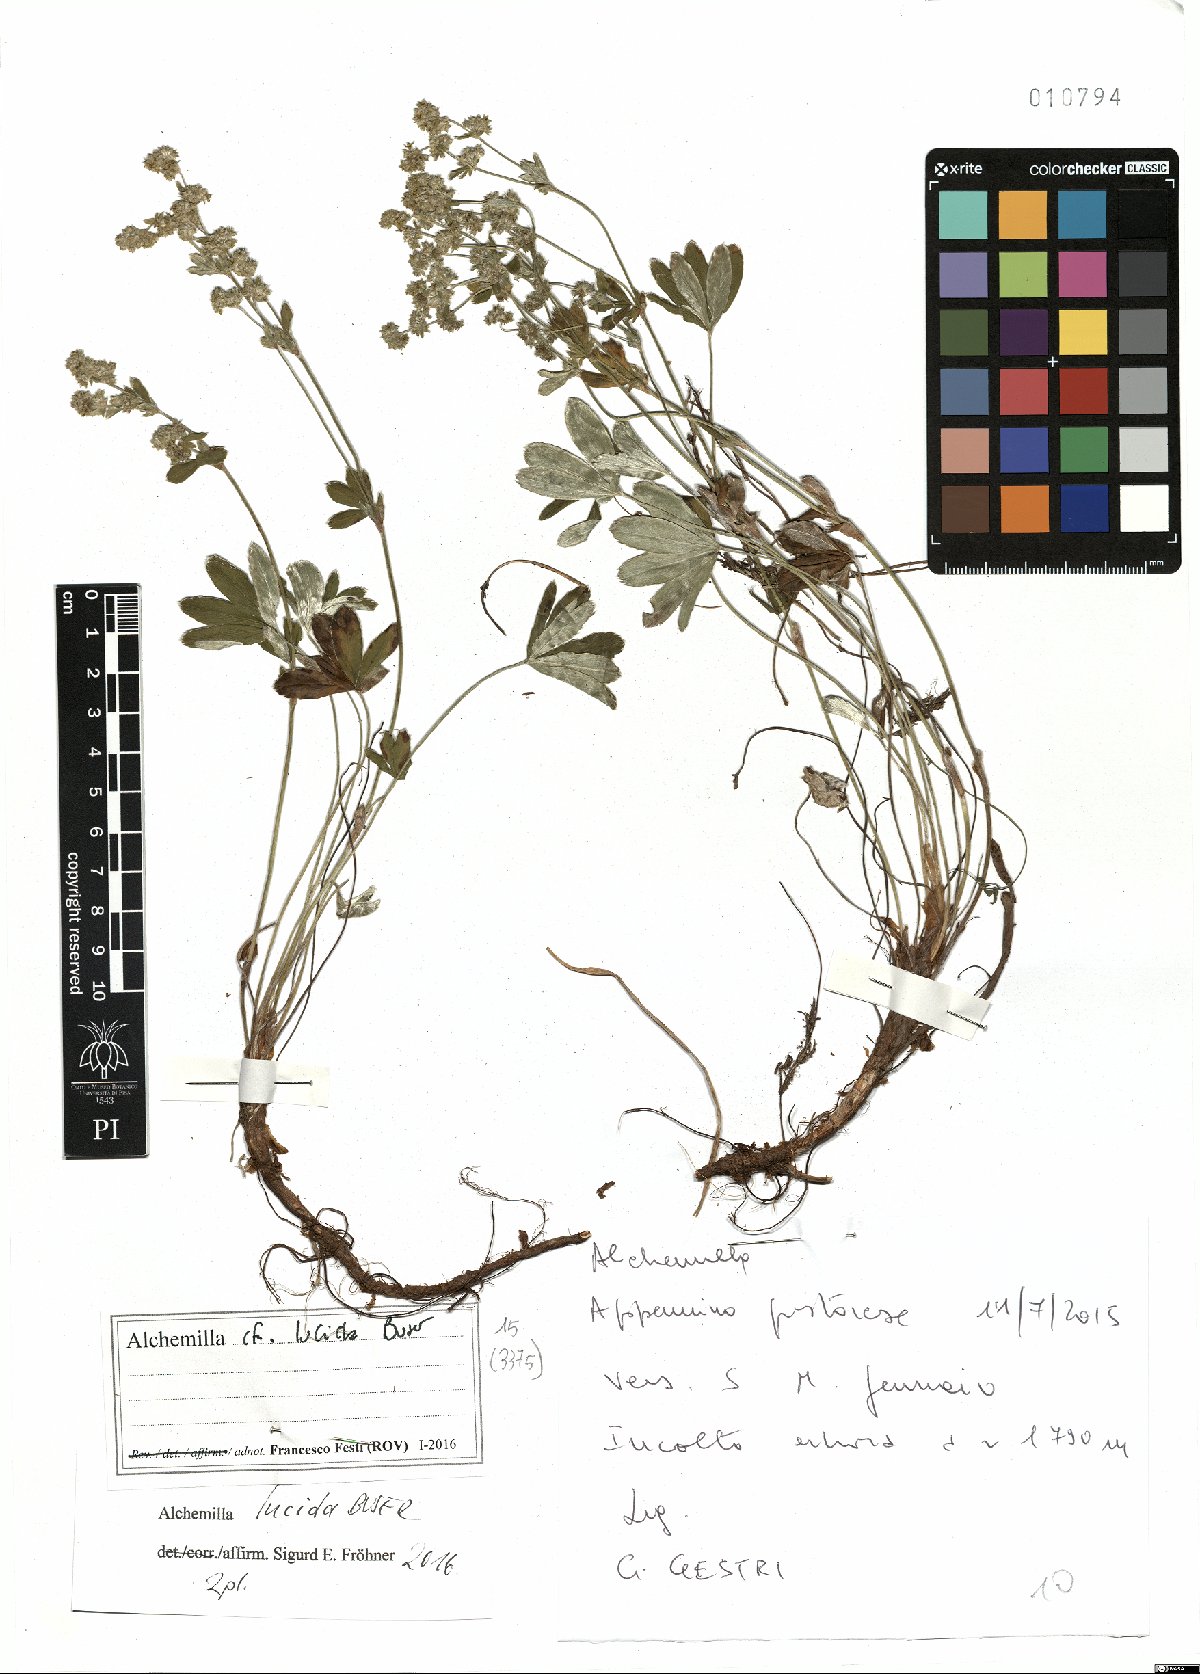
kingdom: Plantae
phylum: Tracheophyta
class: Magnoliopsida
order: Rosales
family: Rosaceae
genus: Alchemilla
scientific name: Alchemilla lucida
